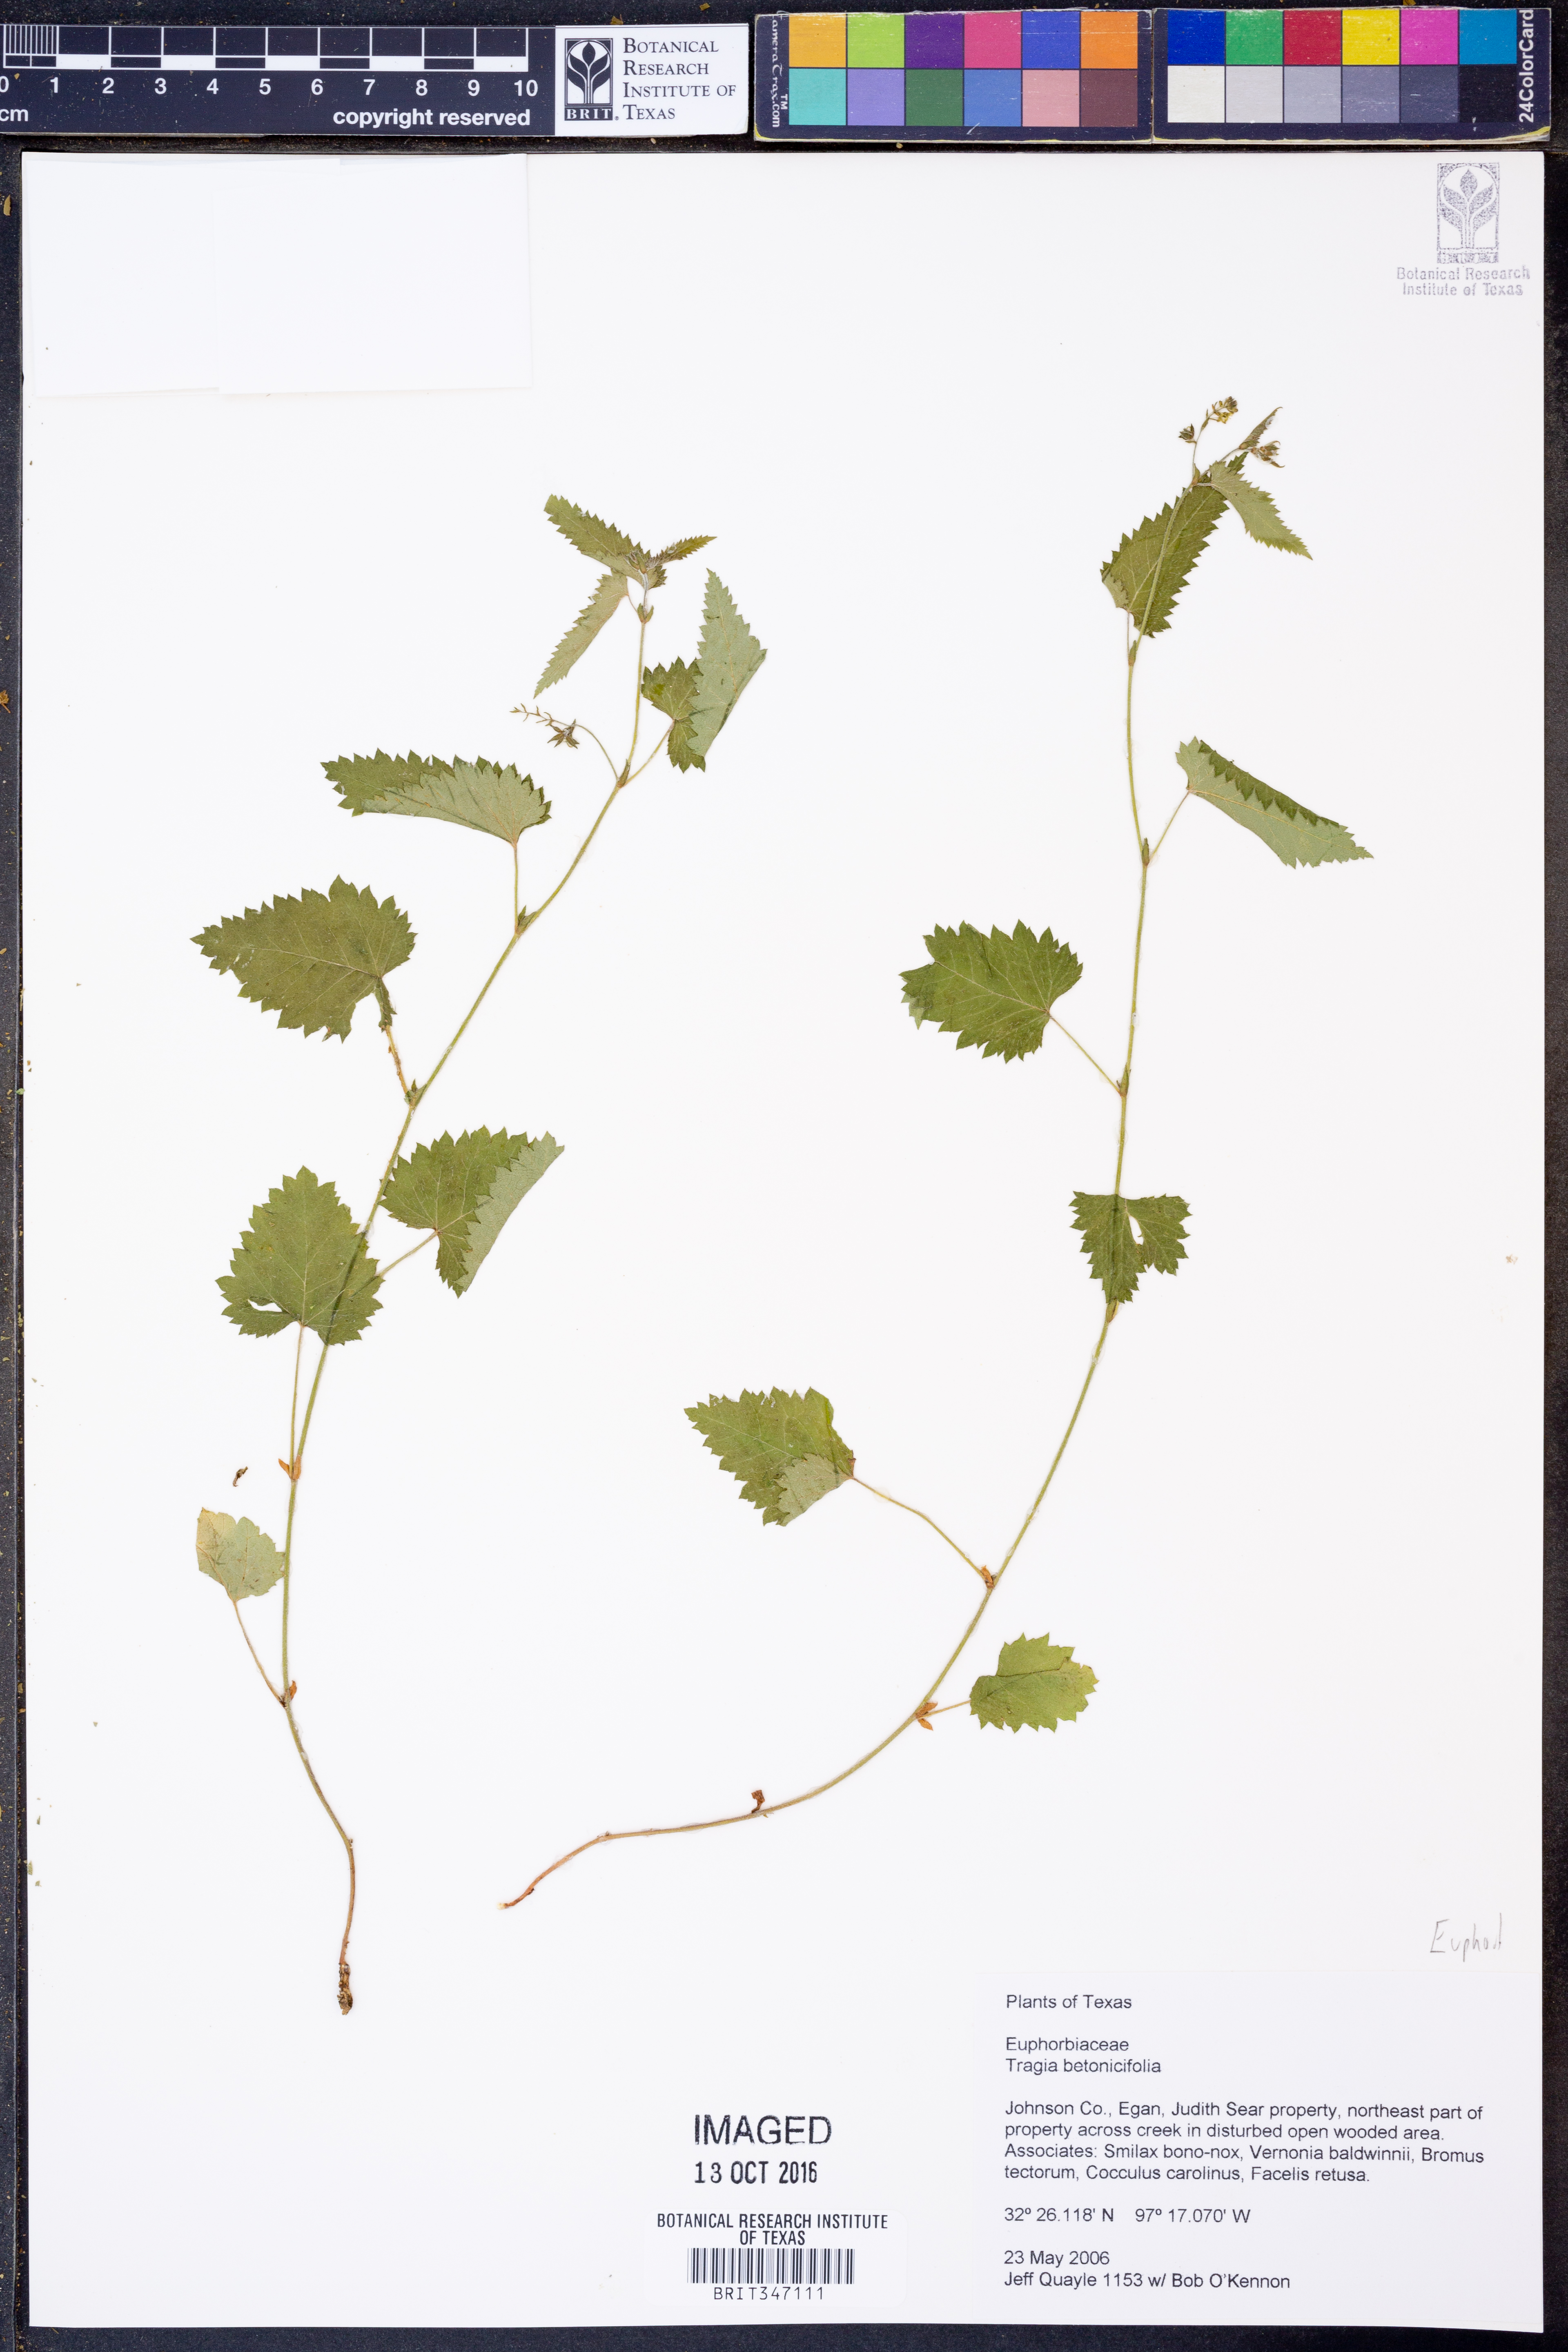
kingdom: Plantae
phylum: Tracheophyta
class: Magnoliopsida
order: Malpighiales
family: Euphorbiaceae
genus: Tragia
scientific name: Tragia betonicifolia
